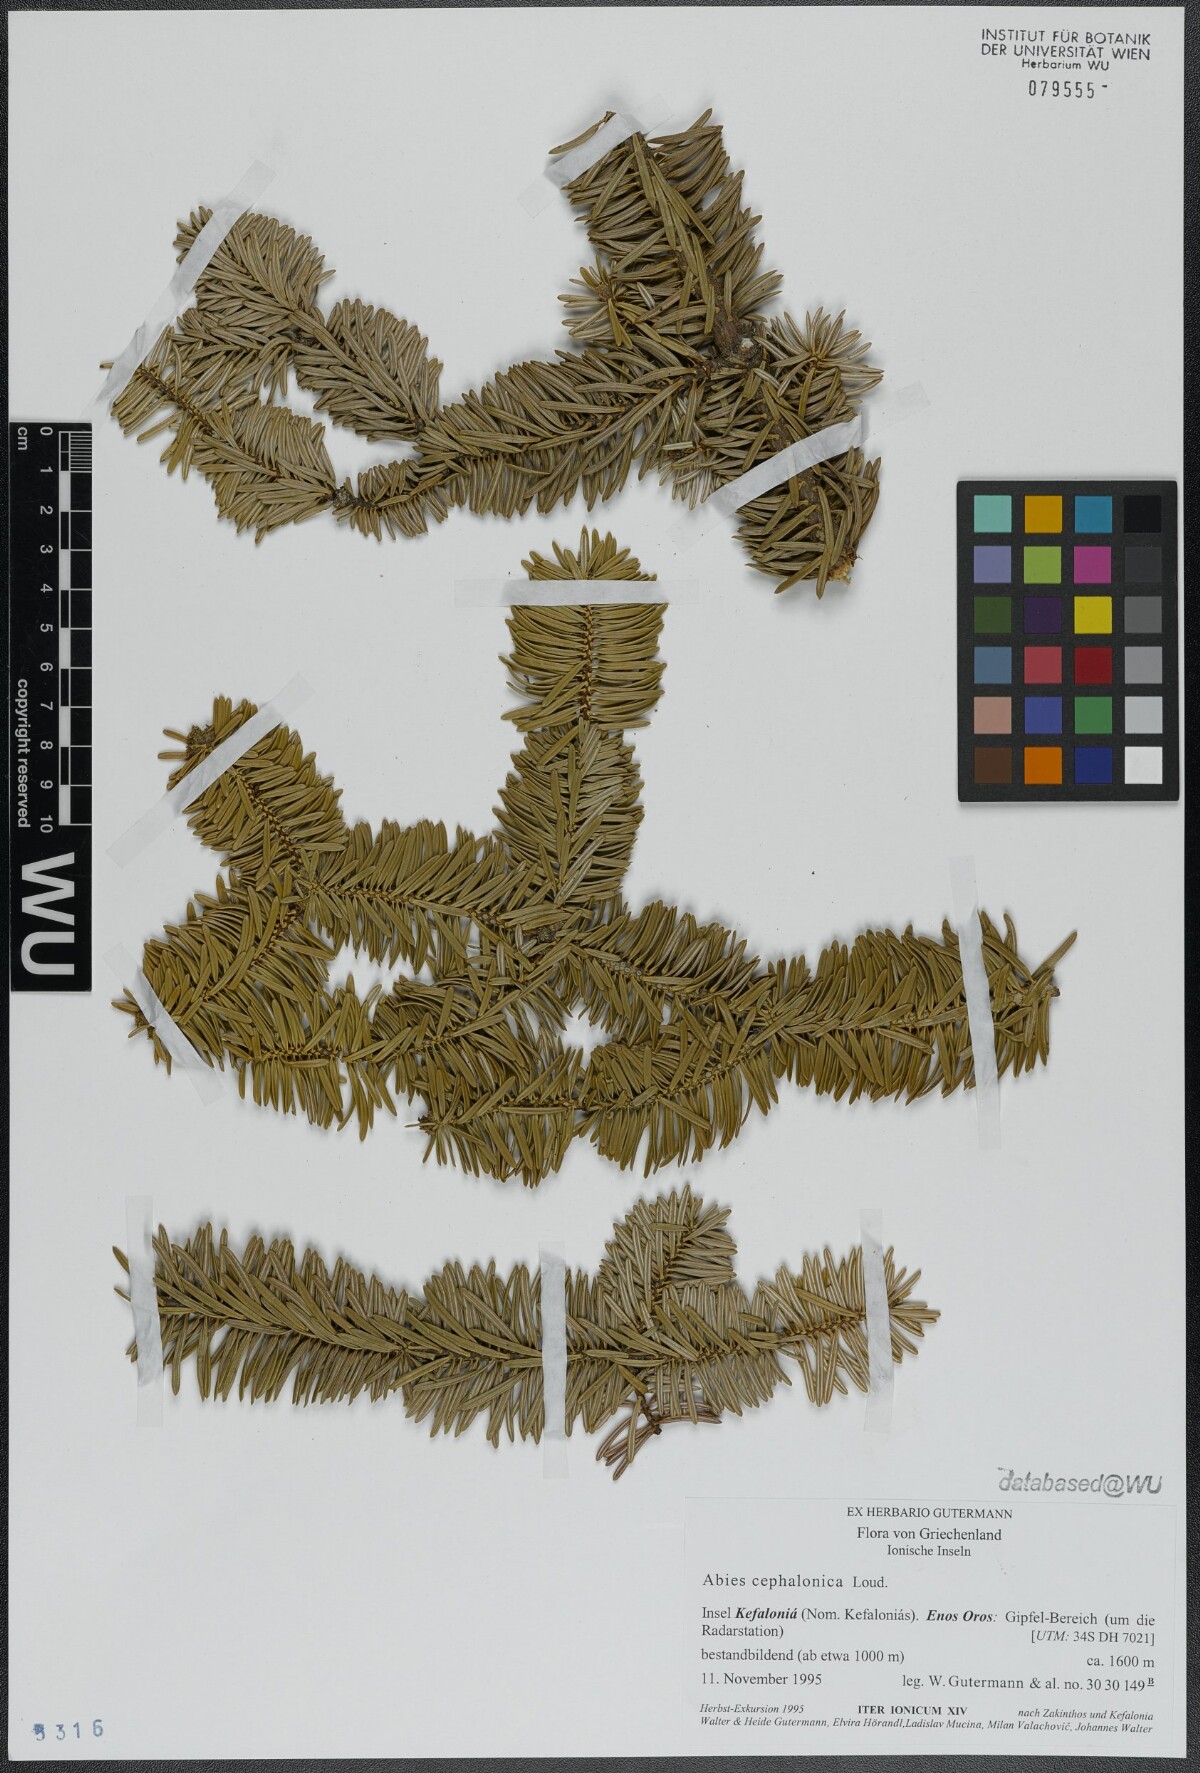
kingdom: Plantae
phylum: Tracheophyta
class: Pinopsida
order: Pinales
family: Pinaceae
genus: Abies
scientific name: Abies cephalonica
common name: Greek fir
